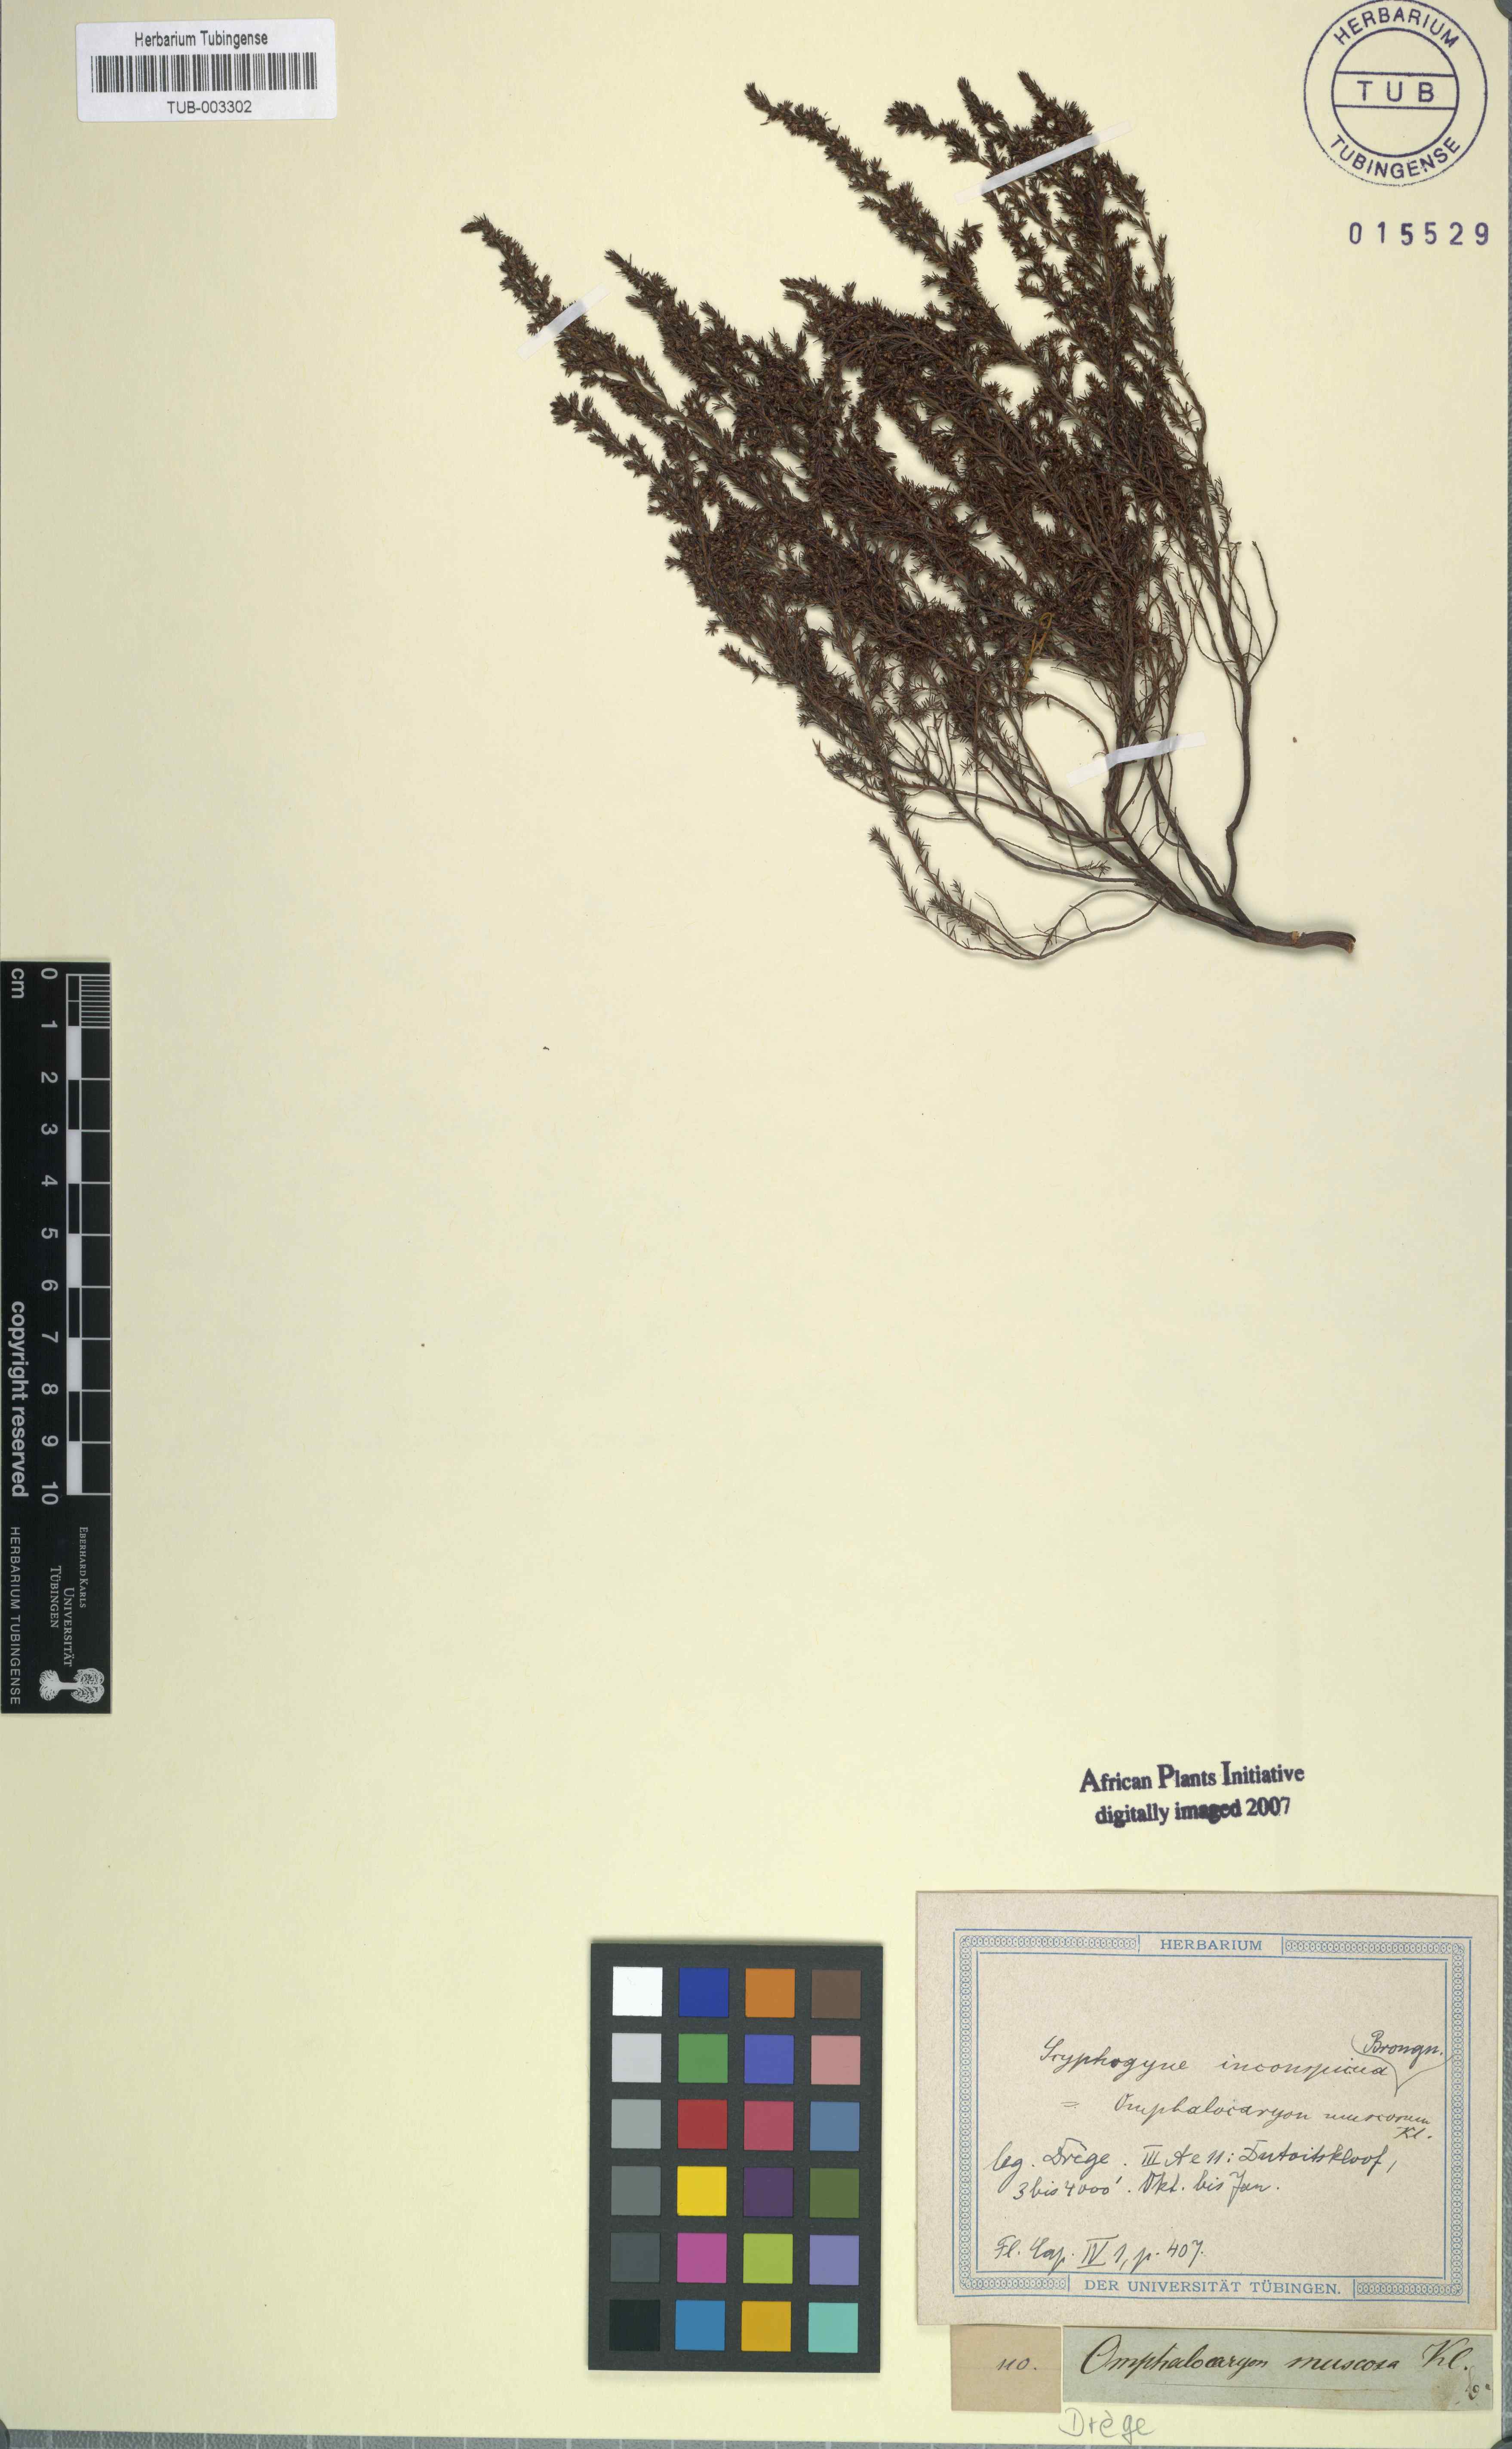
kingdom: Plantae
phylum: Tracheophyta
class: Magnoliopsida
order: Ericales
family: Ericaceae
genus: Erica
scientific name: Erica muscosa
